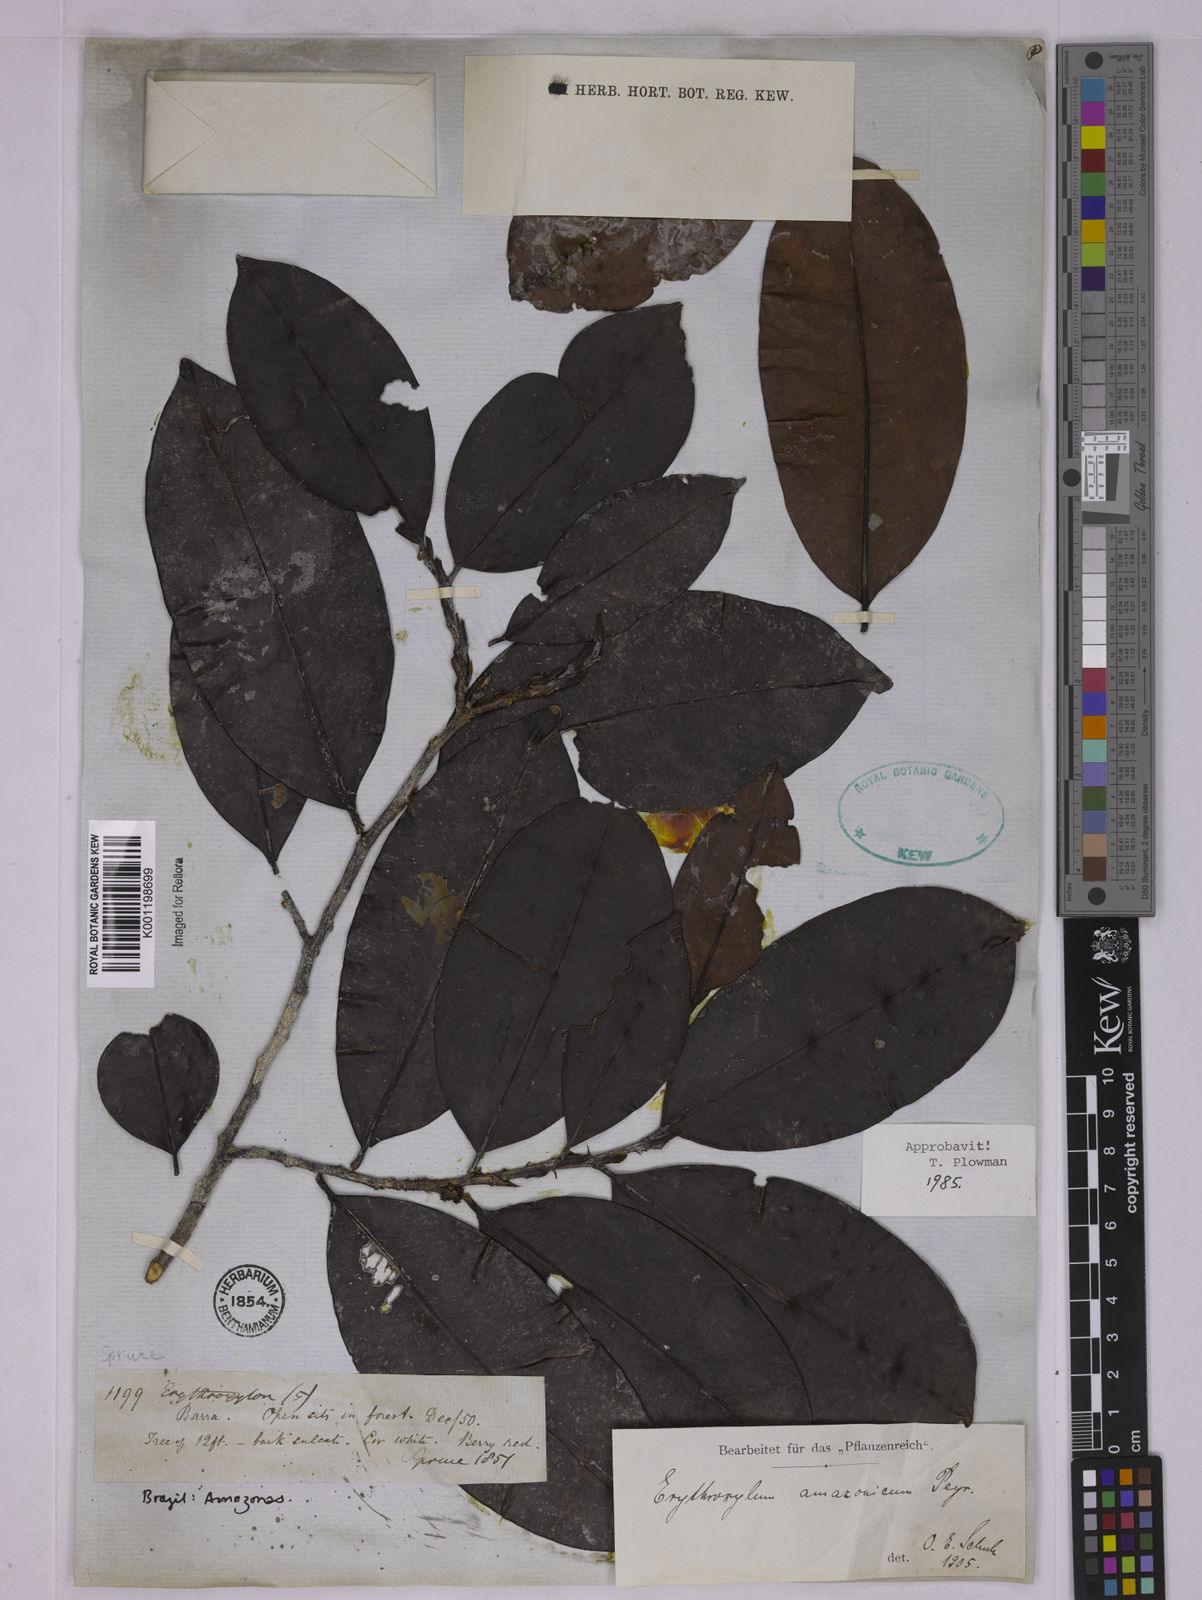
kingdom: Plantae
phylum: Tracheophyta
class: Magnoliopsida
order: Malpighiales
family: Erythroxylaceae
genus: Erythroxylum
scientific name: Erythroxylum amazonicum
